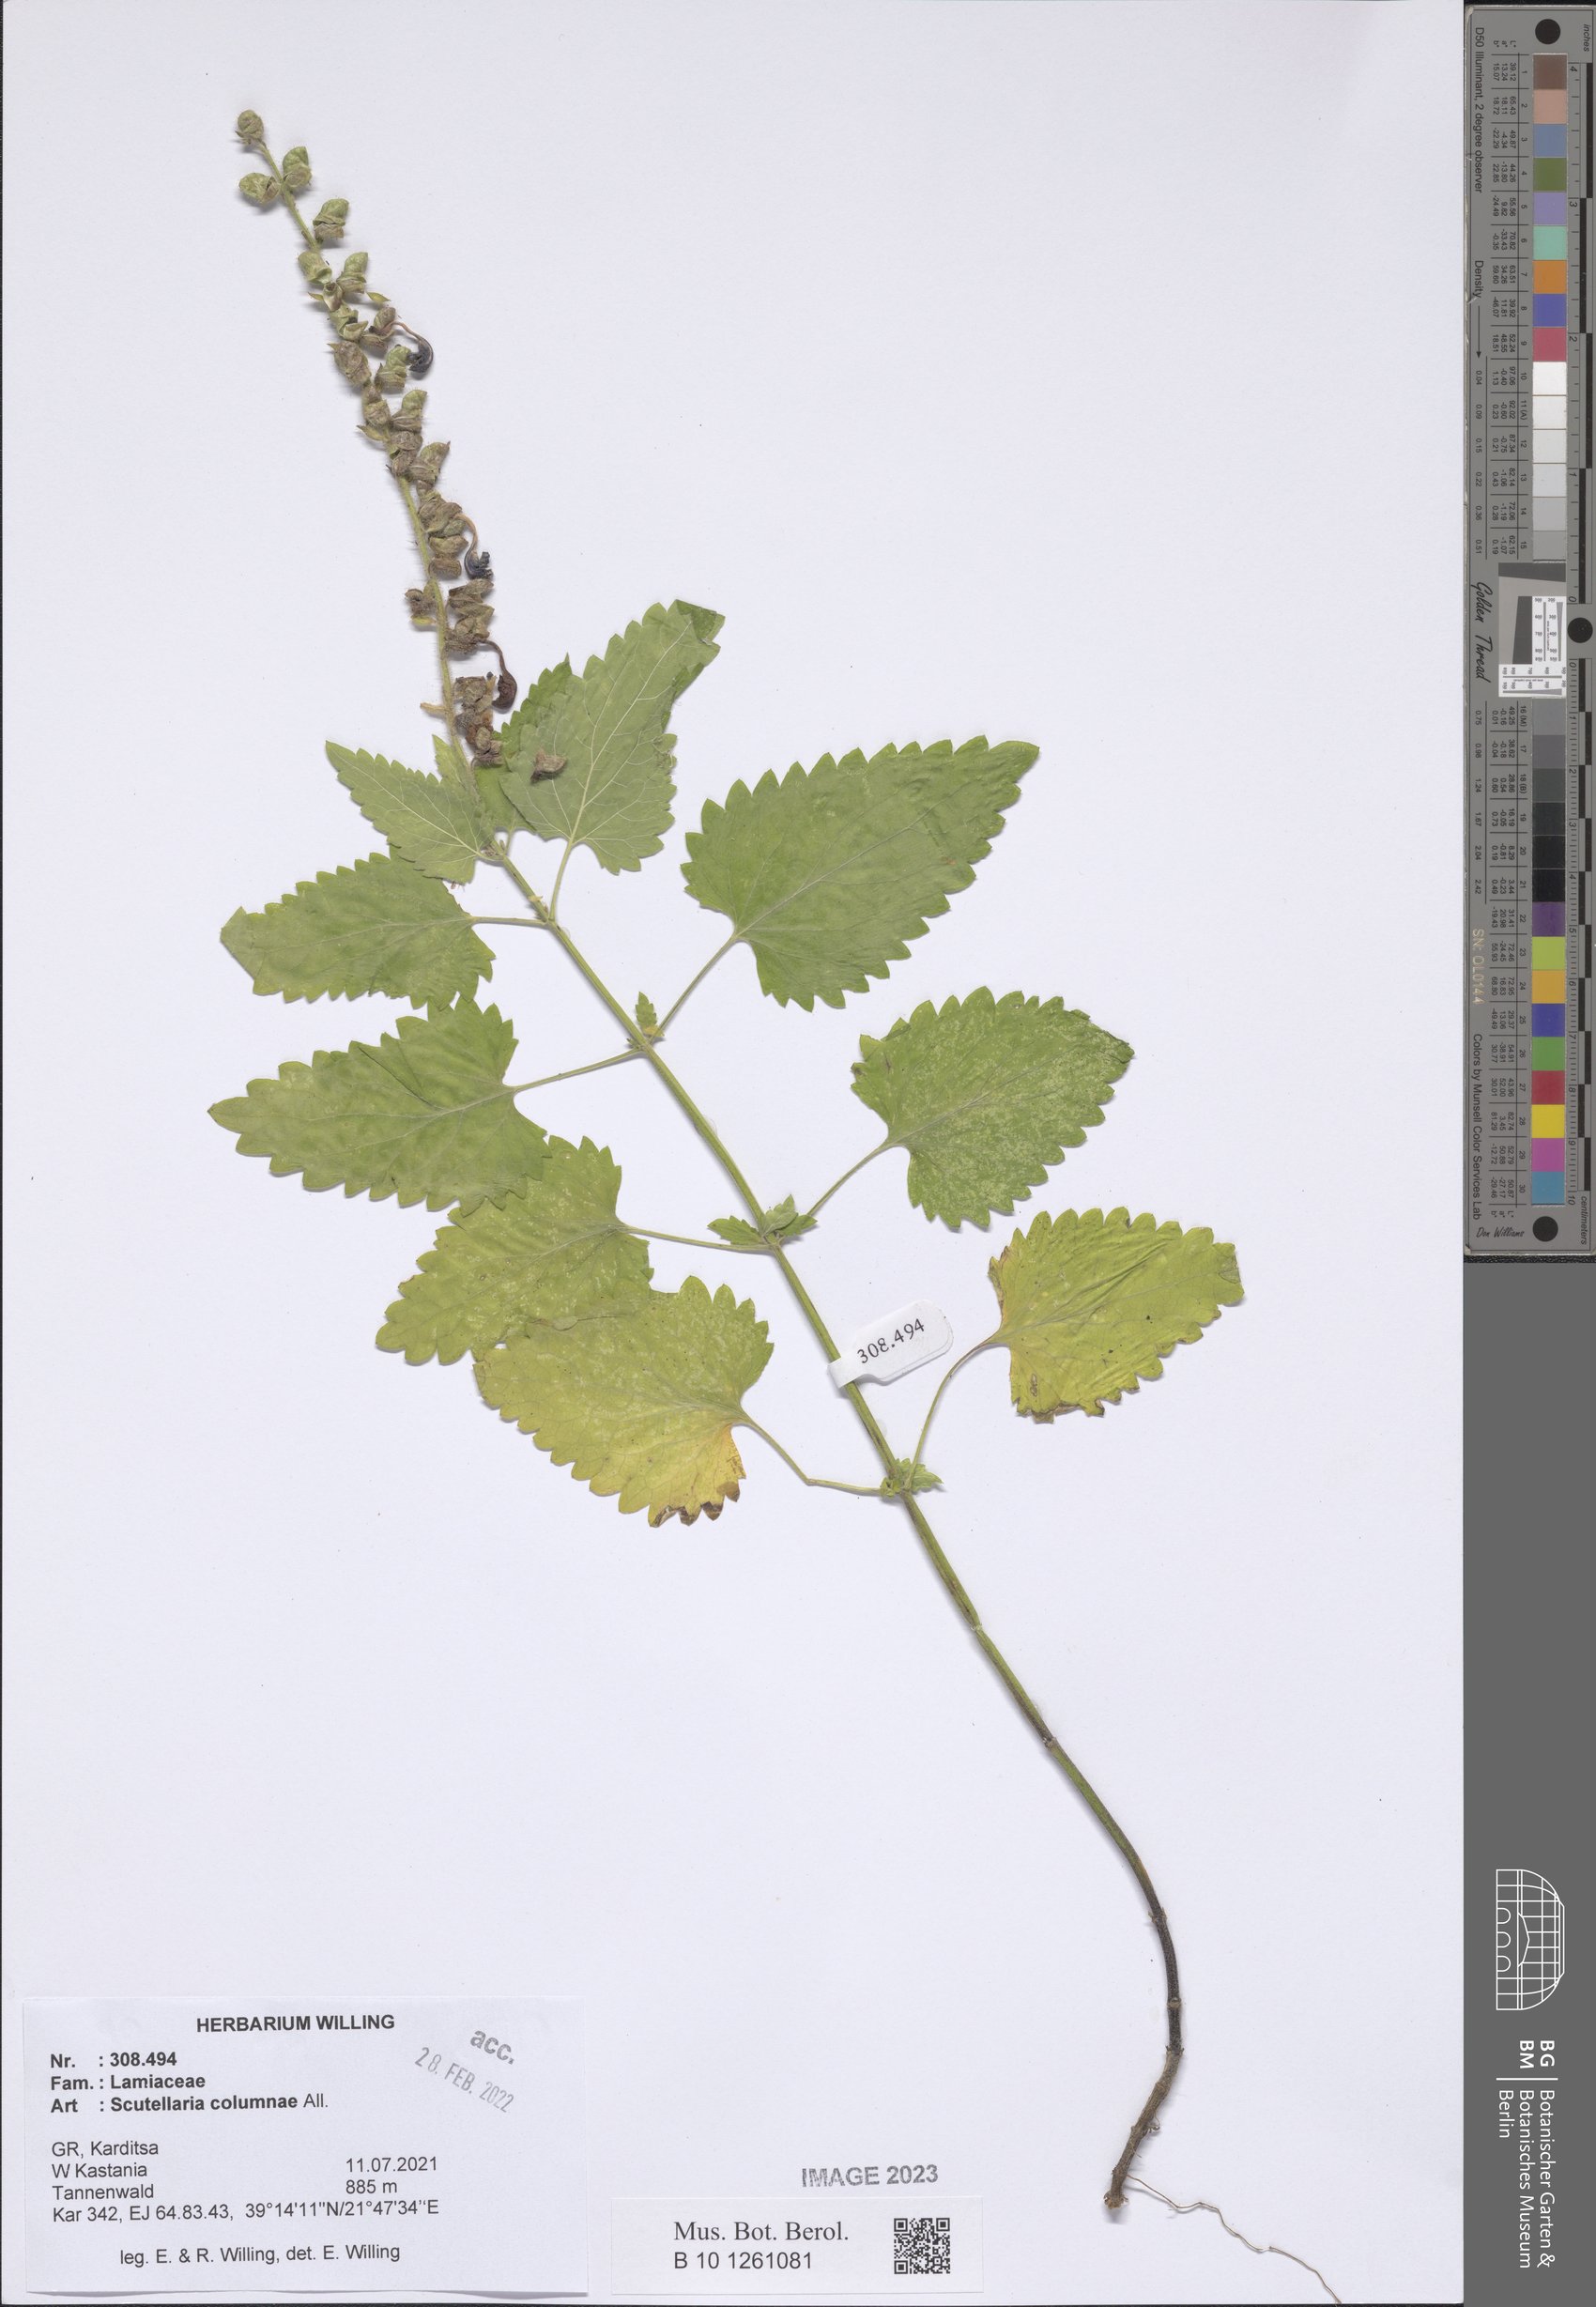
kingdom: Plantae
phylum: Tracheophyta
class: Magnoliopsida
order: Lamiales
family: Lamiaceae
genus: Scutellaria
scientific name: Scutellaria columnae
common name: Large skullcap
